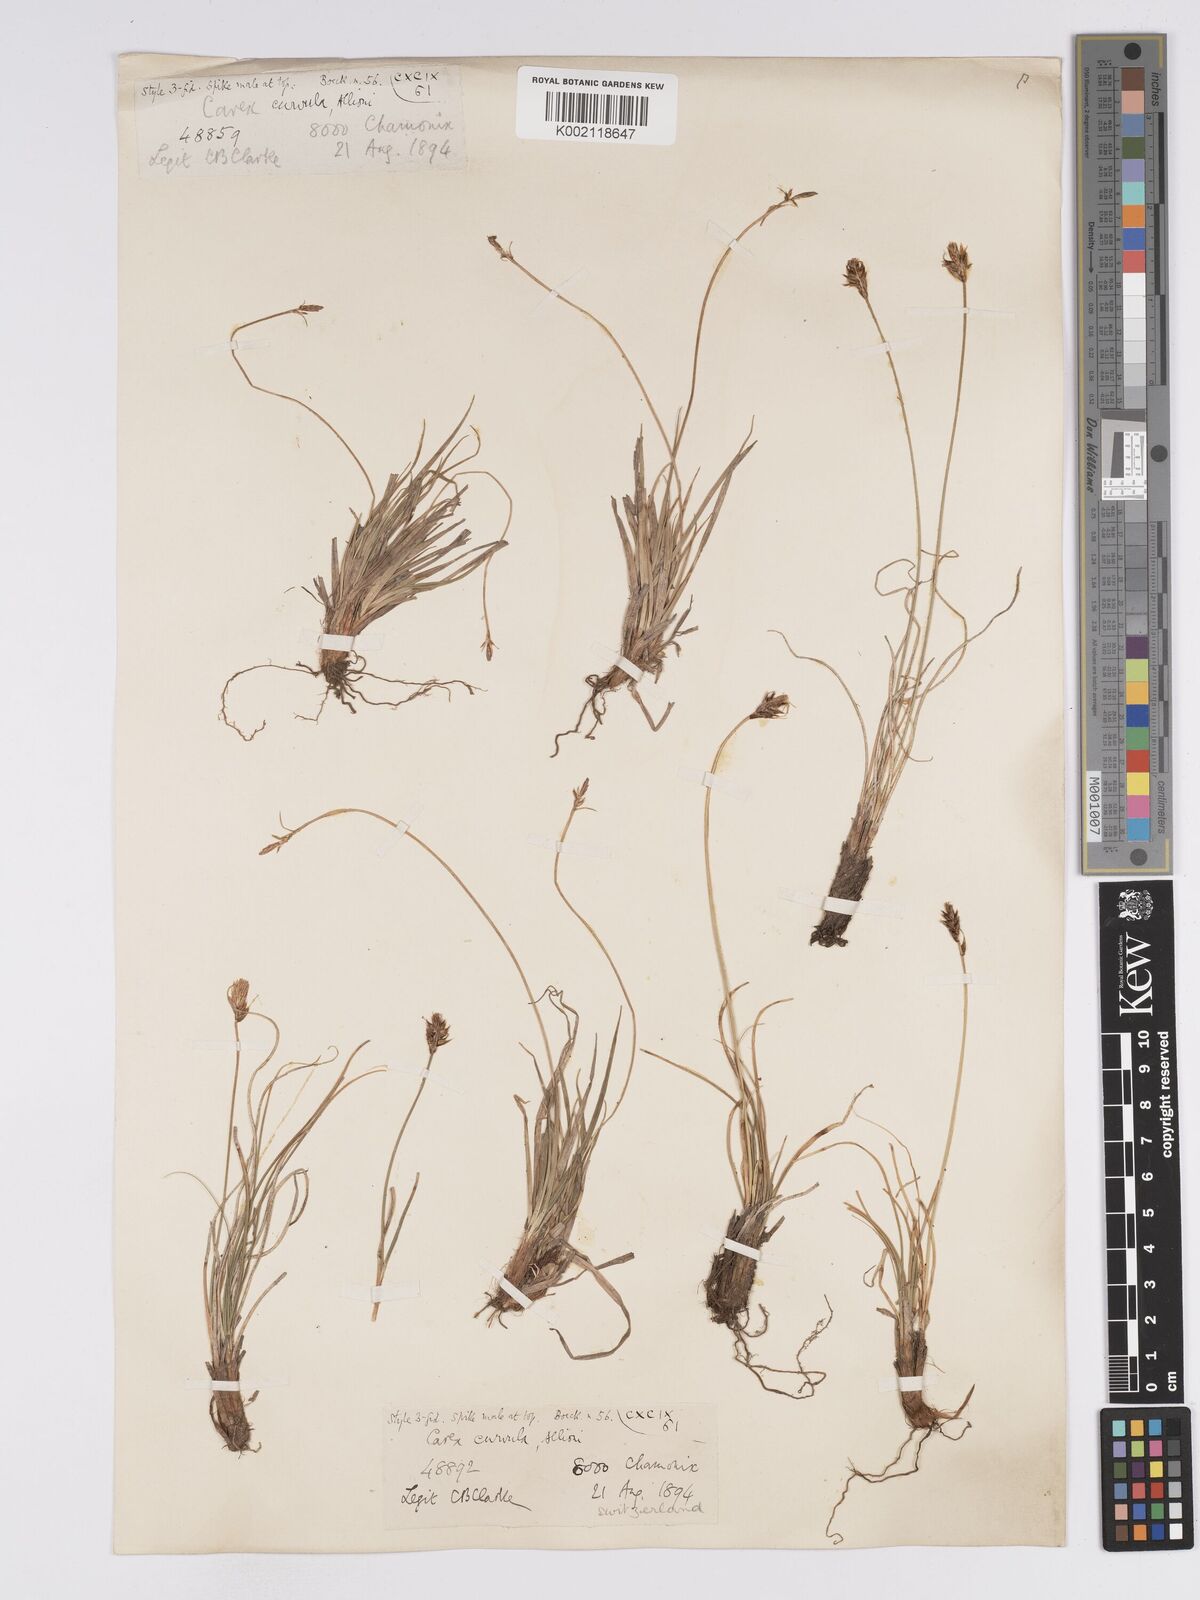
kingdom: Plantae
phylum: Tracheophyta
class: Liliopsida
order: Poales
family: Cyperaceae
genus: Carex
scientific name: Carex curvula
